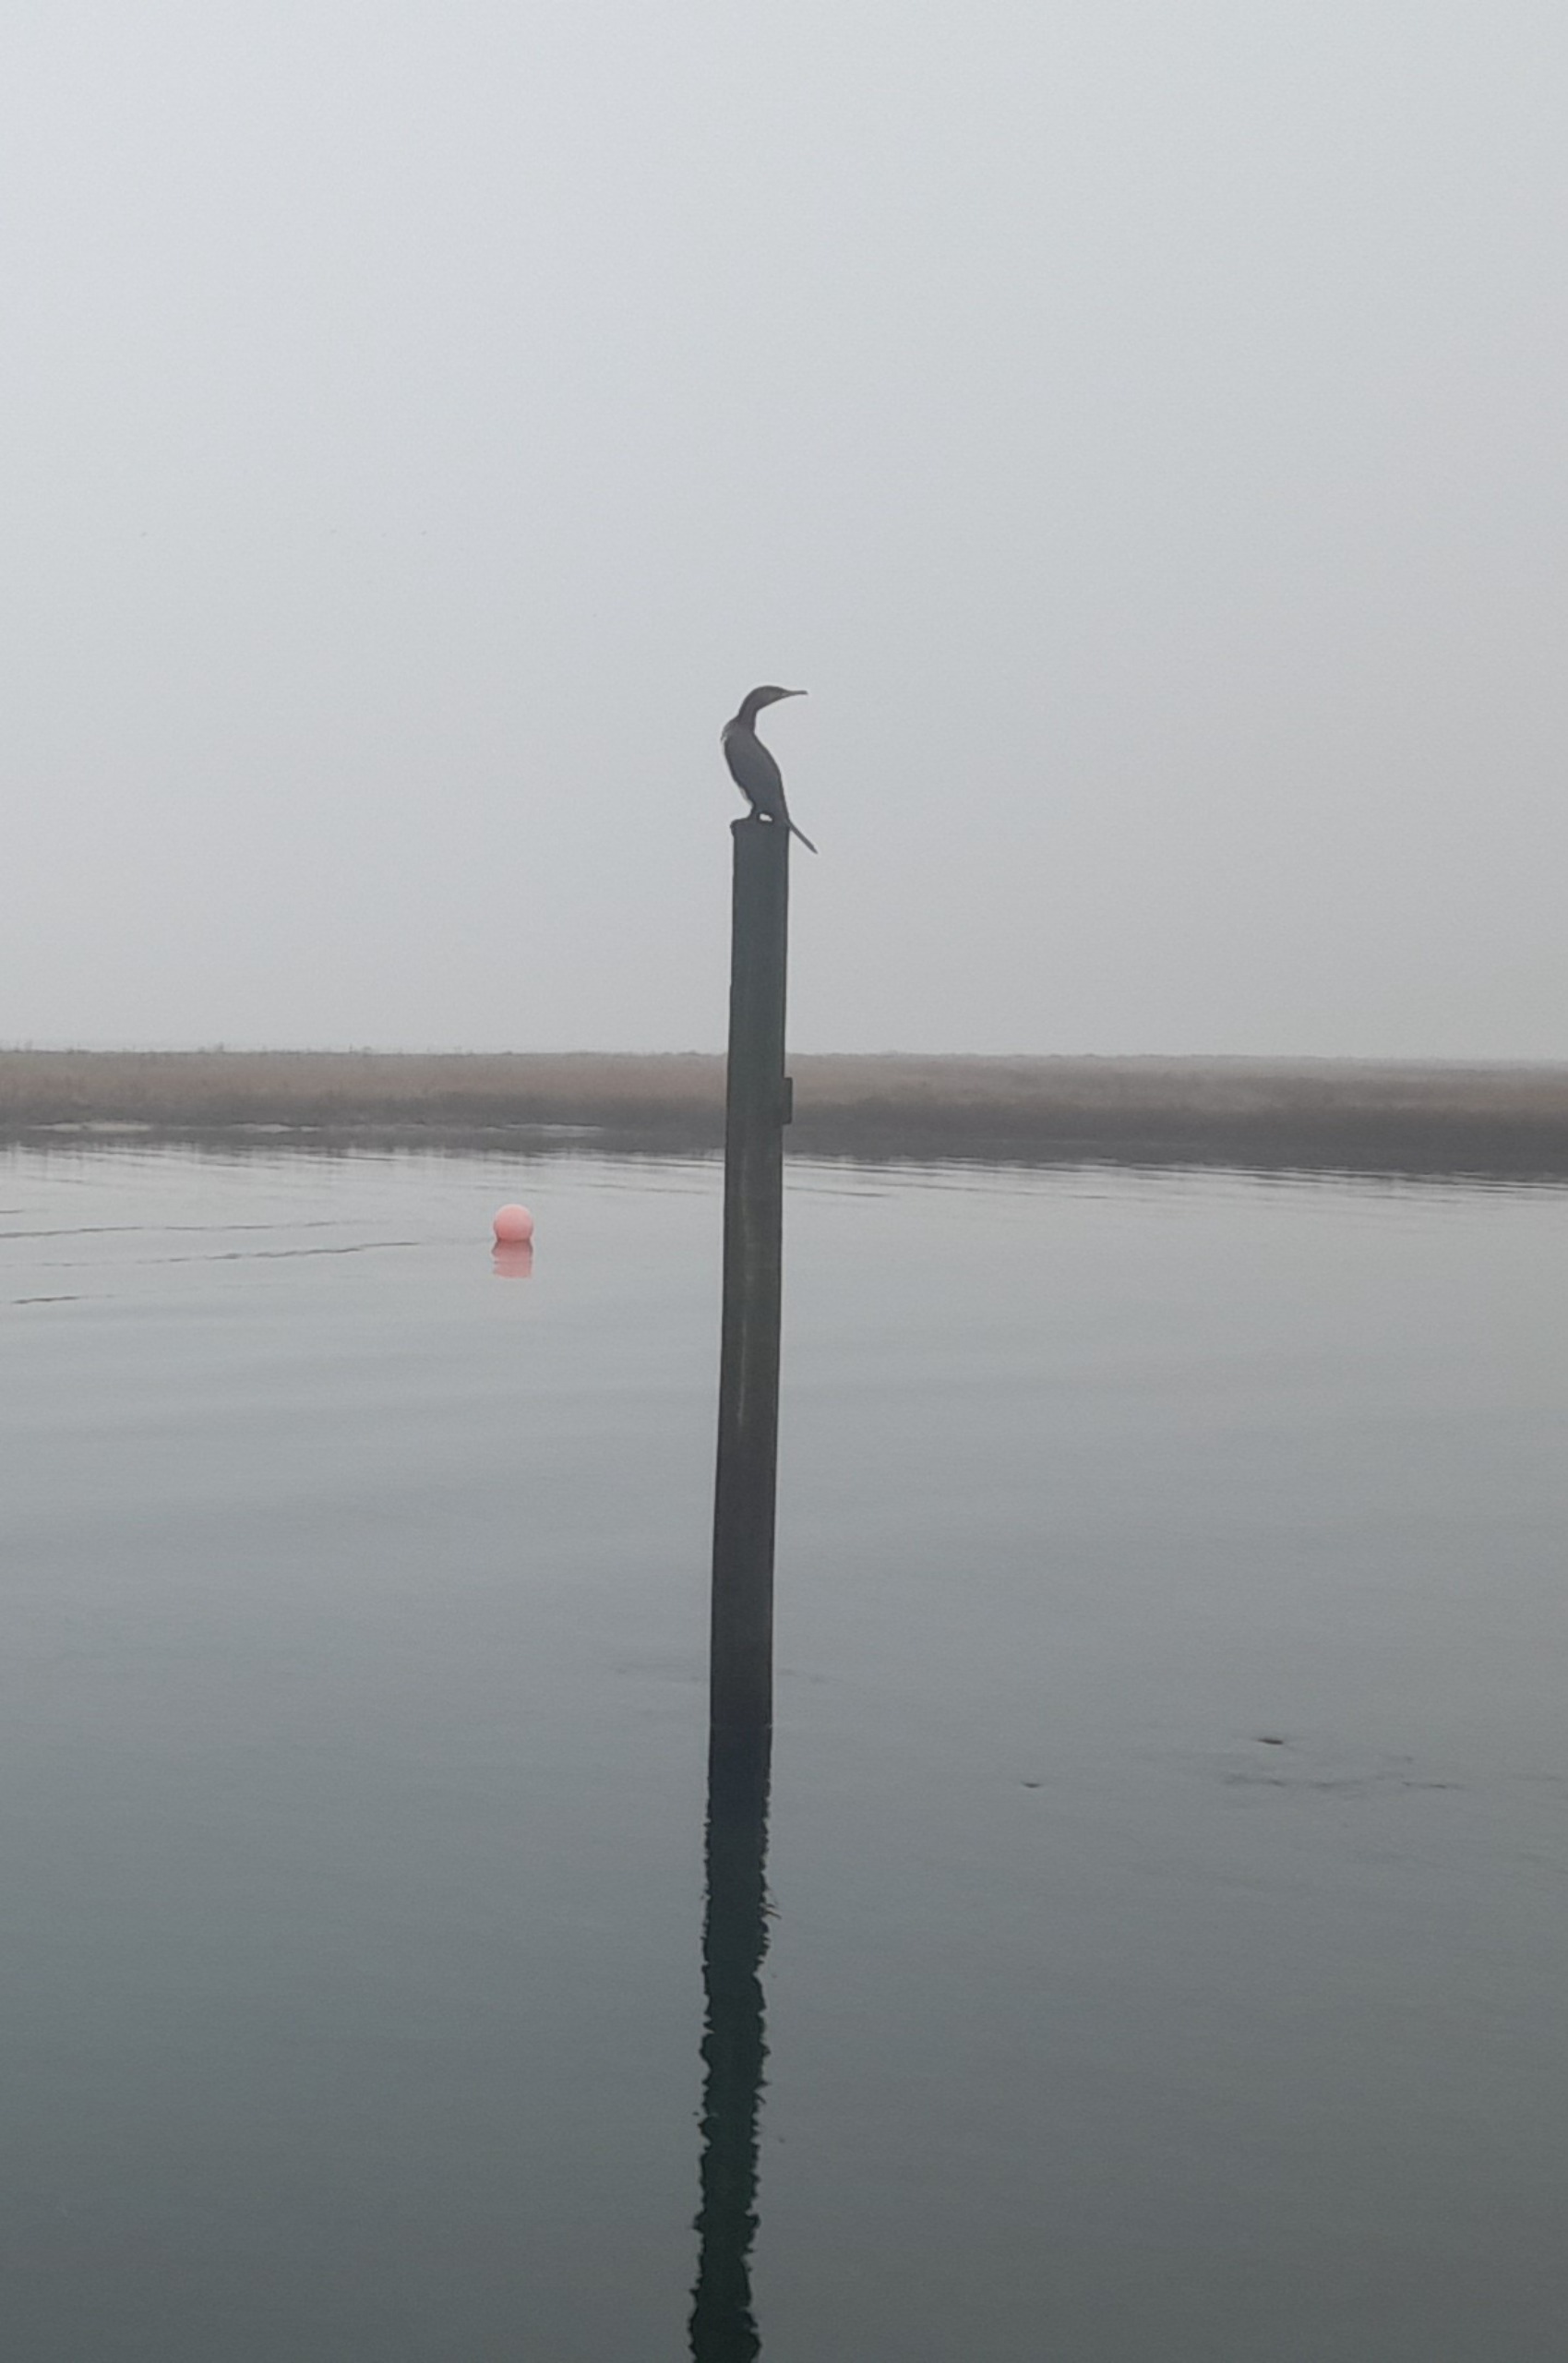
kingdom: Animalia
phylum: Chordata
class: Aves
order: Suliformes
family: Phalacrocoracidae
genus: Phalacrocorax
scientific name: Phalacrocorax carbo
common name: Skarv
